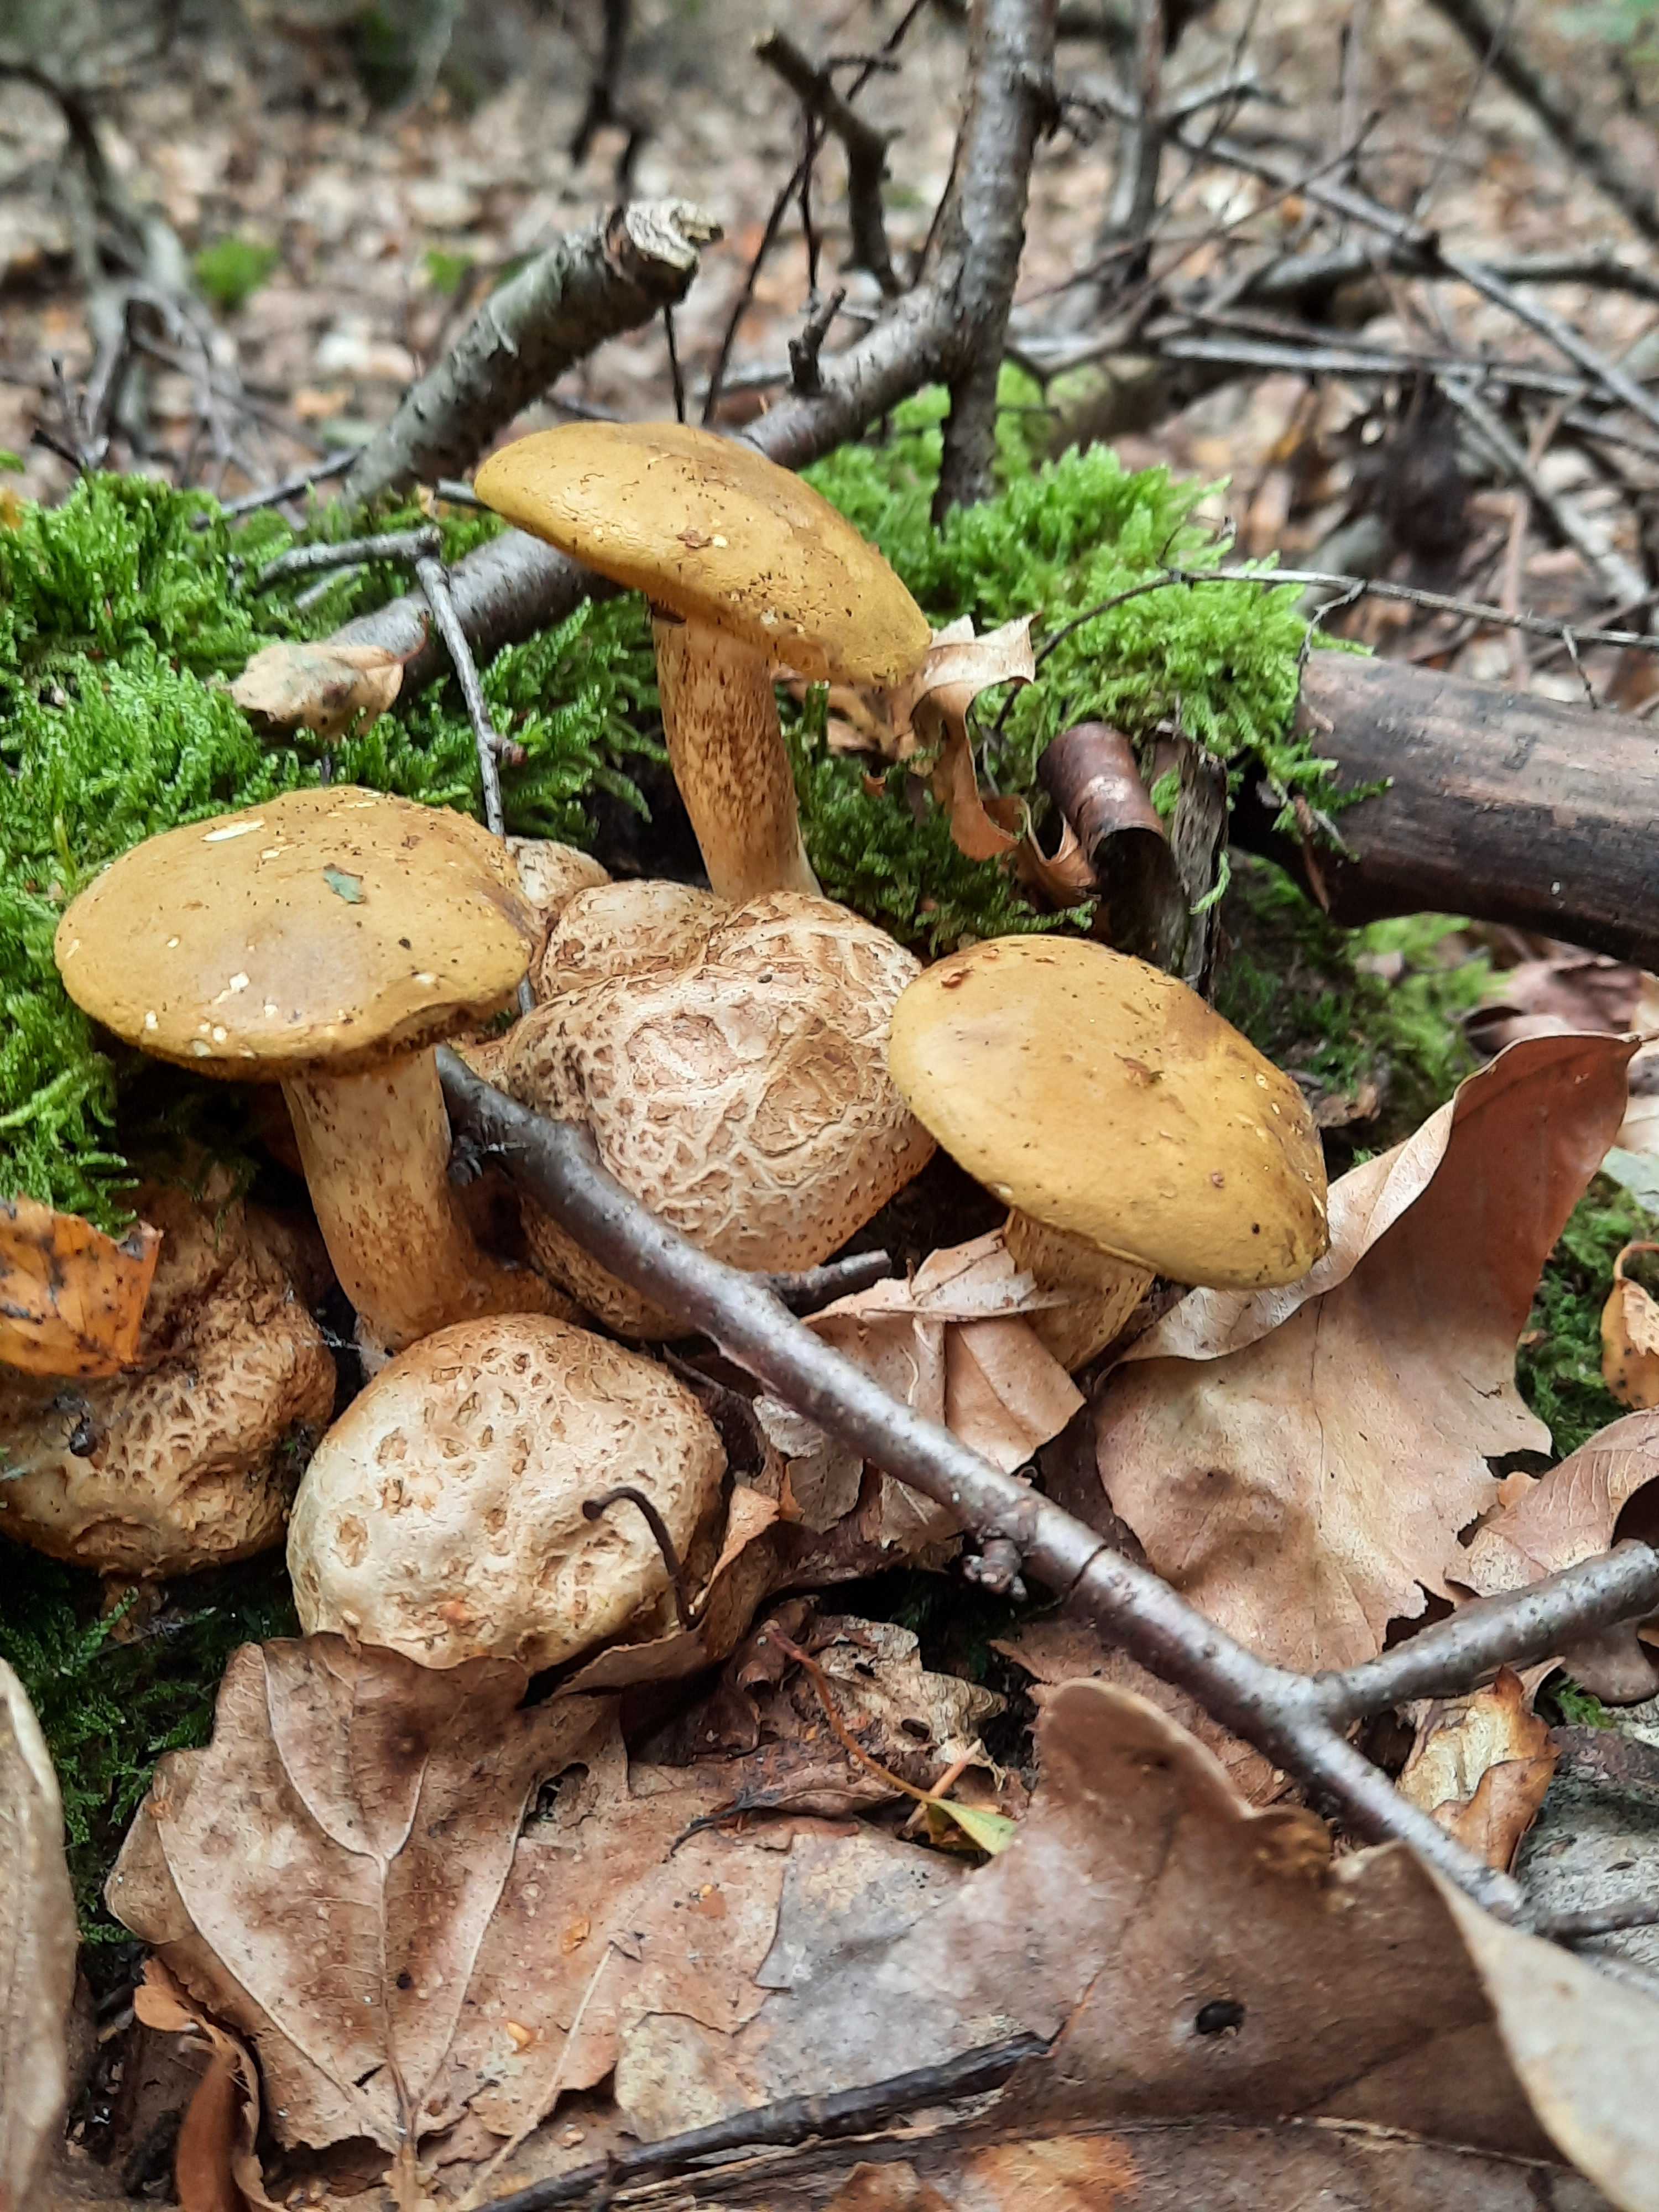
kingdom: Fungi
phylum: Basidiomycota
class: Agaricomycetes
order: Boletales
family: Boletaceae
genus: Pseudoboletus
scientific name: Pseudoboletus parasiticus
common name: snyltende rørhat
